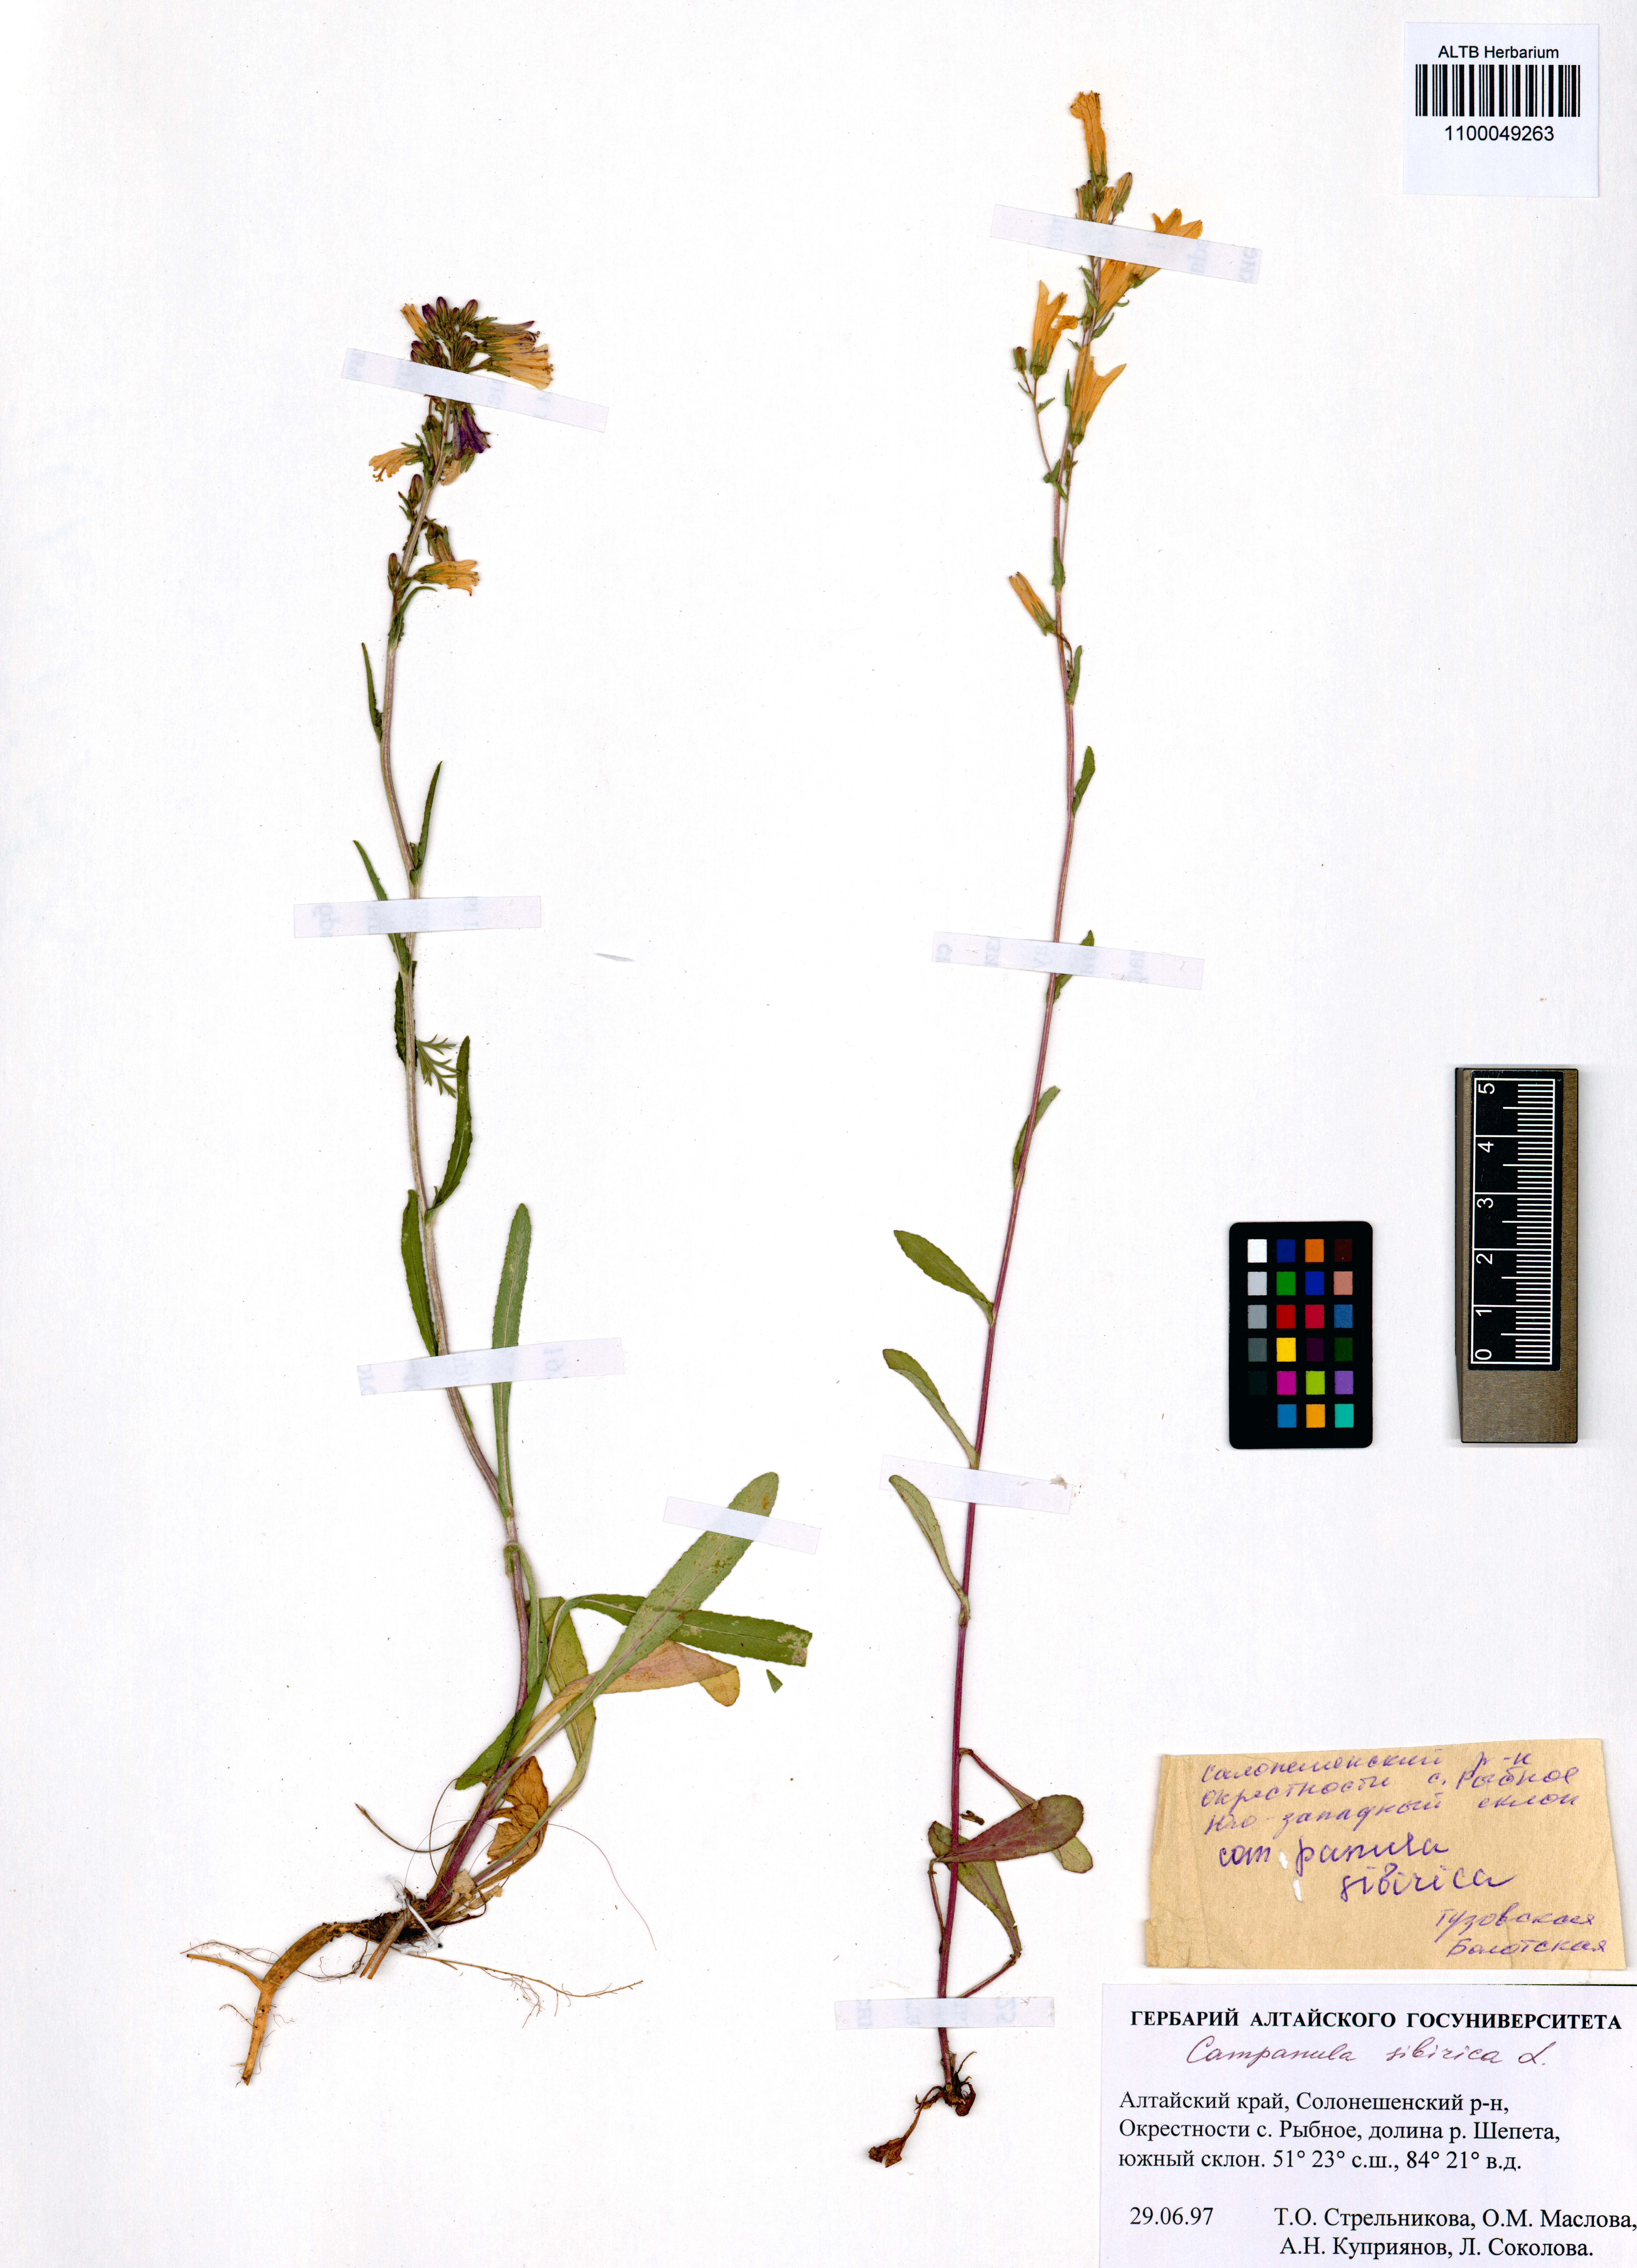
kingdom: Plantae
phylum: Tracheophyta
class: Magnoliopsida
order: Asterales
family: Campanulaceae
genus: Campanula
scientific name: Campanula sibirica
